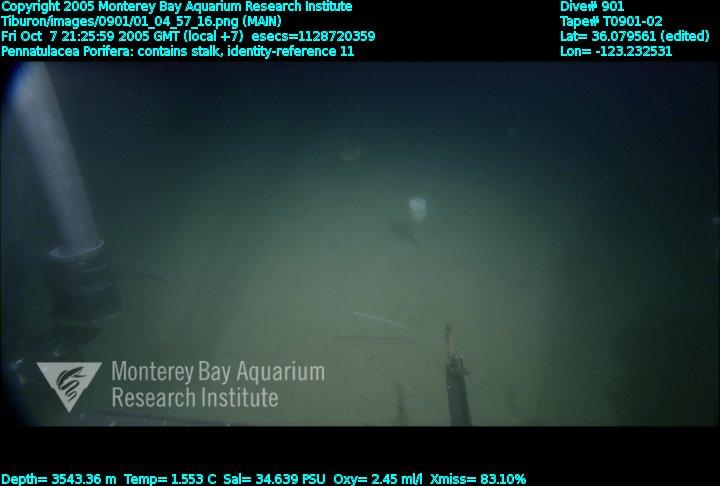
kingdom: Animalia
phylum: Porifera
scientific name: Porifera
